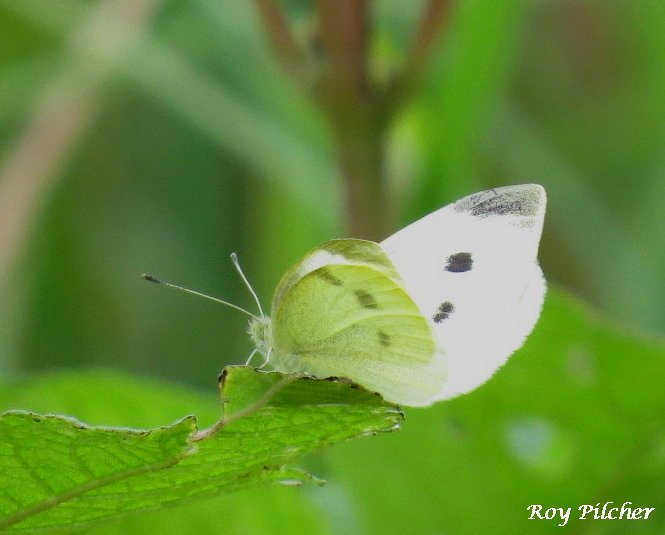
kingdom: Animalia
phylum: Arthropoda
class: Insecta
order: Lepidoptera
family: Pieridae
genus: Pieris
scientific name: Pieris rapae
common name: Cabbage White
